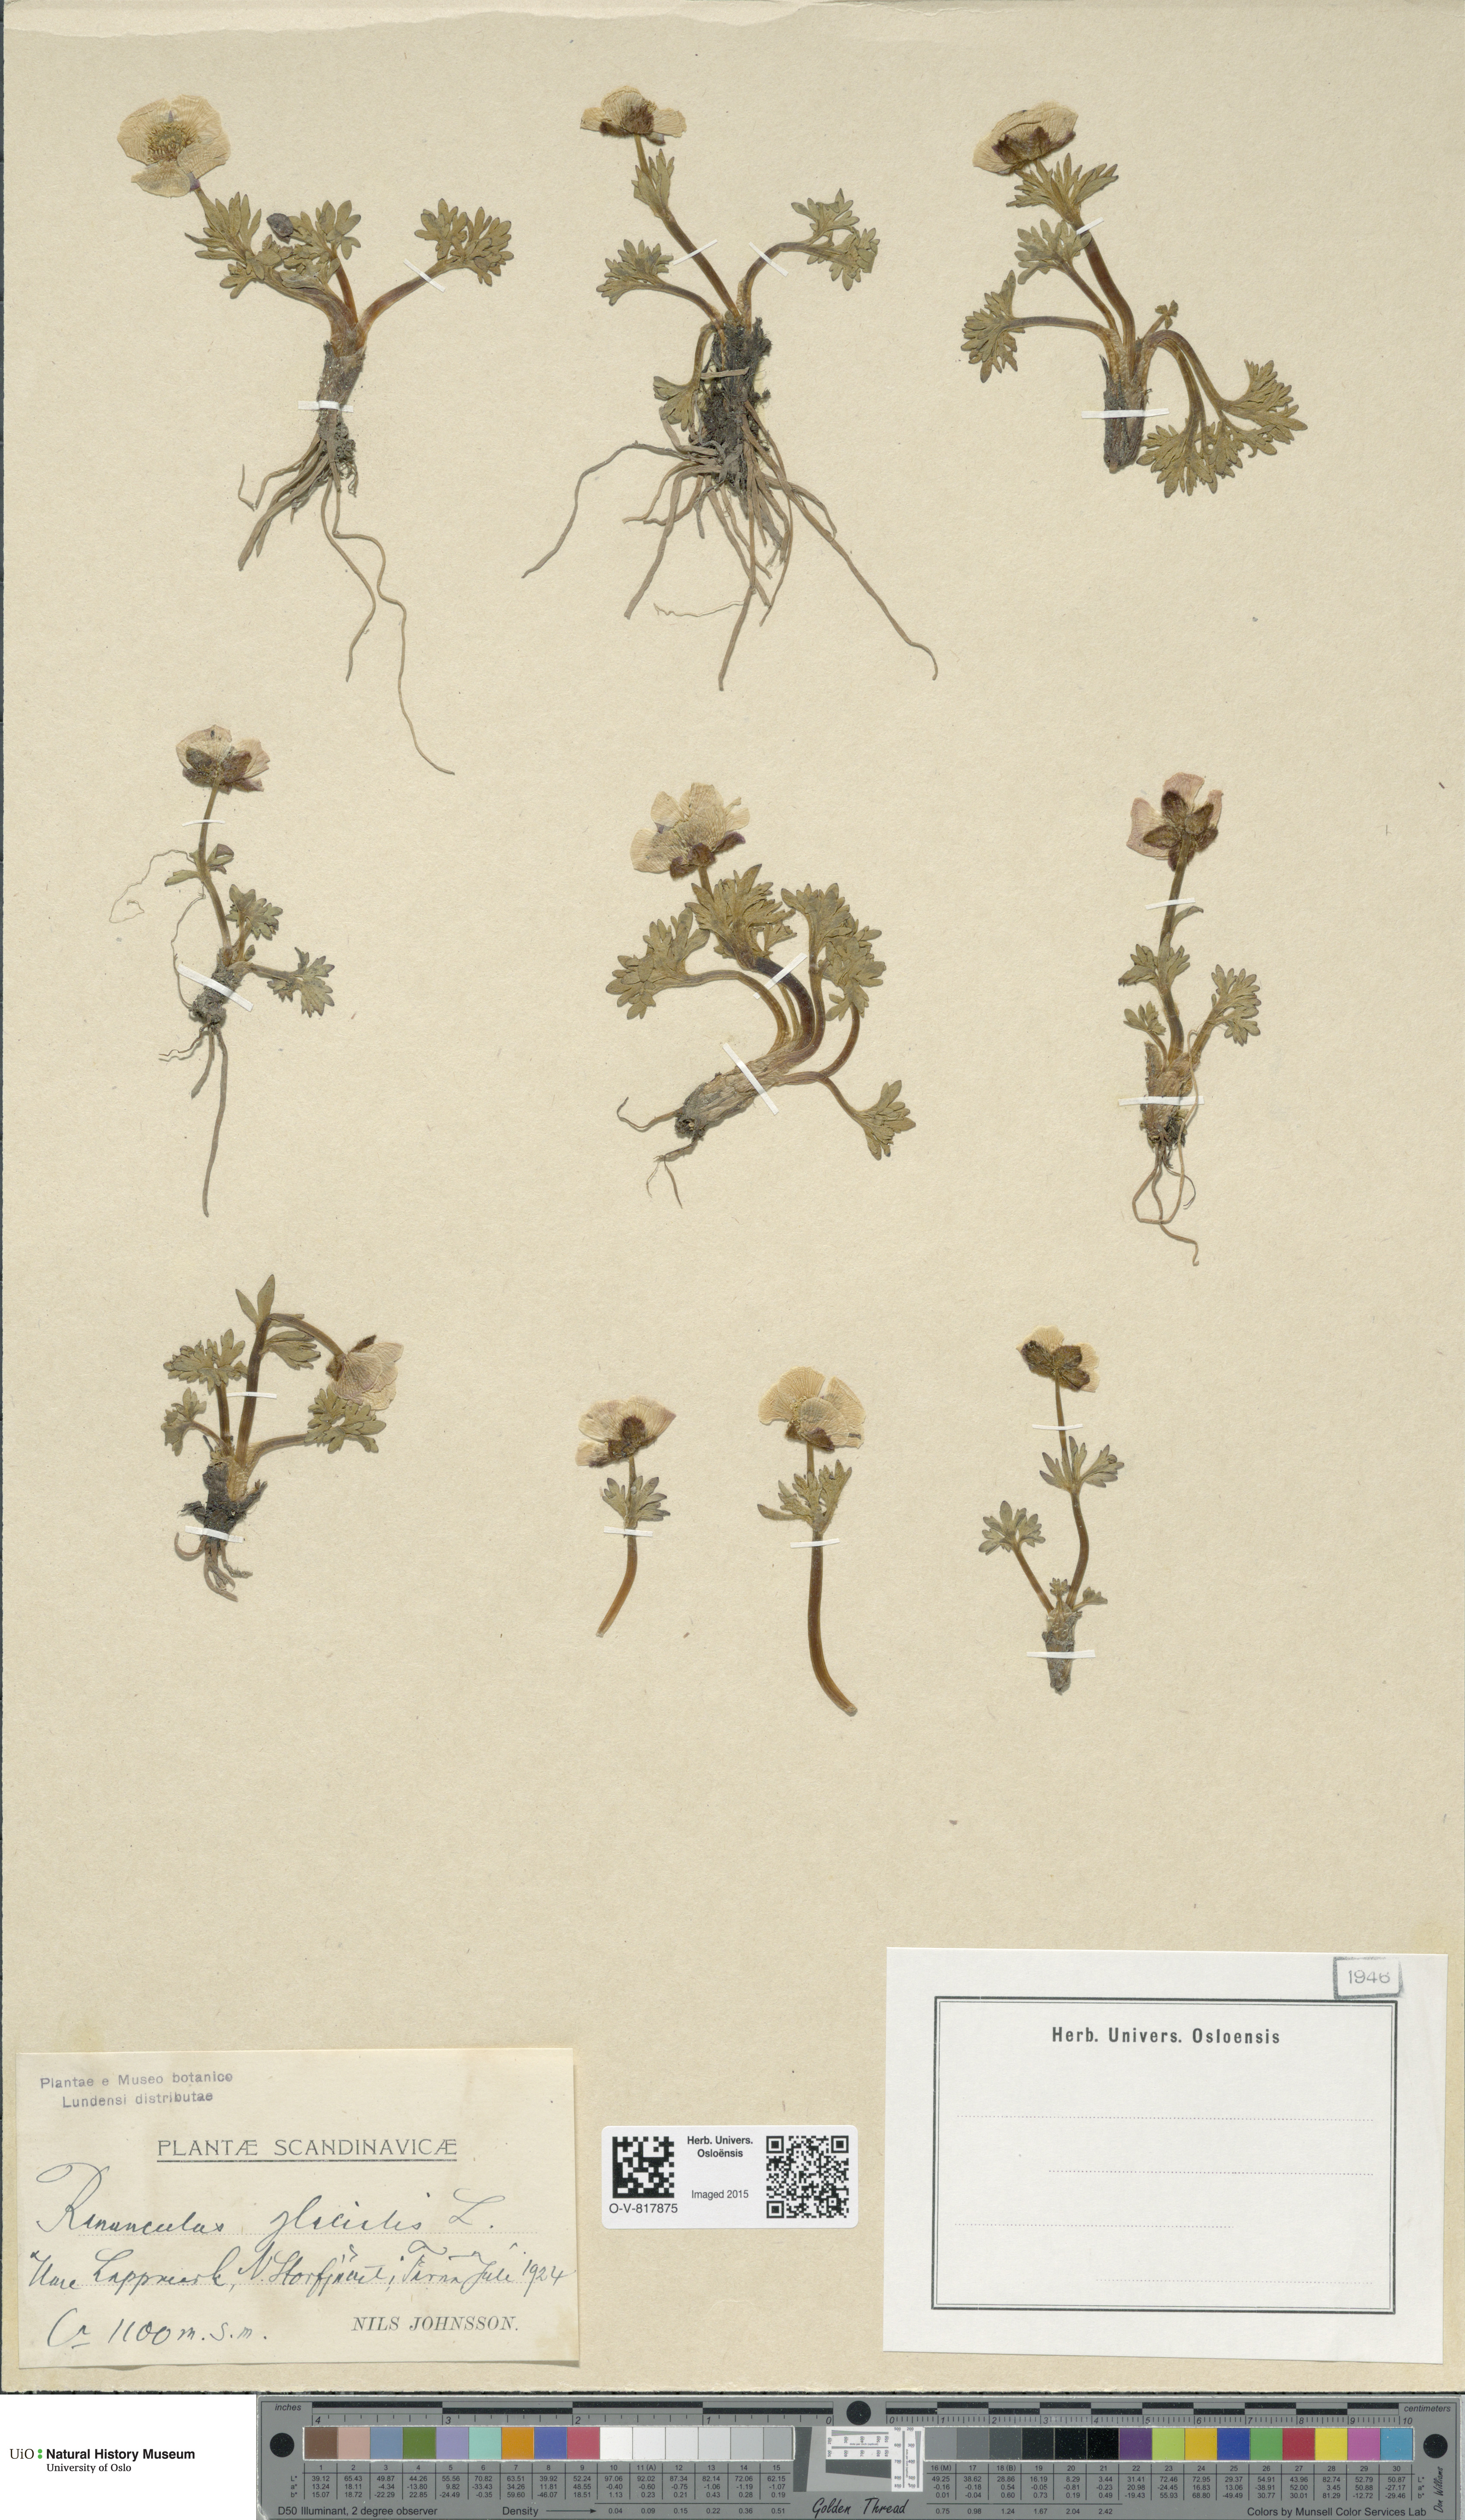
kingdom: Plantae
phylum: Tracheophyta
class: Magnoliopsida
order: Ranunculales
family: Ranunculaceae
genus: Ranunculus
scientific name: Ranunculus glacialis
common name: Glacier buttercup
